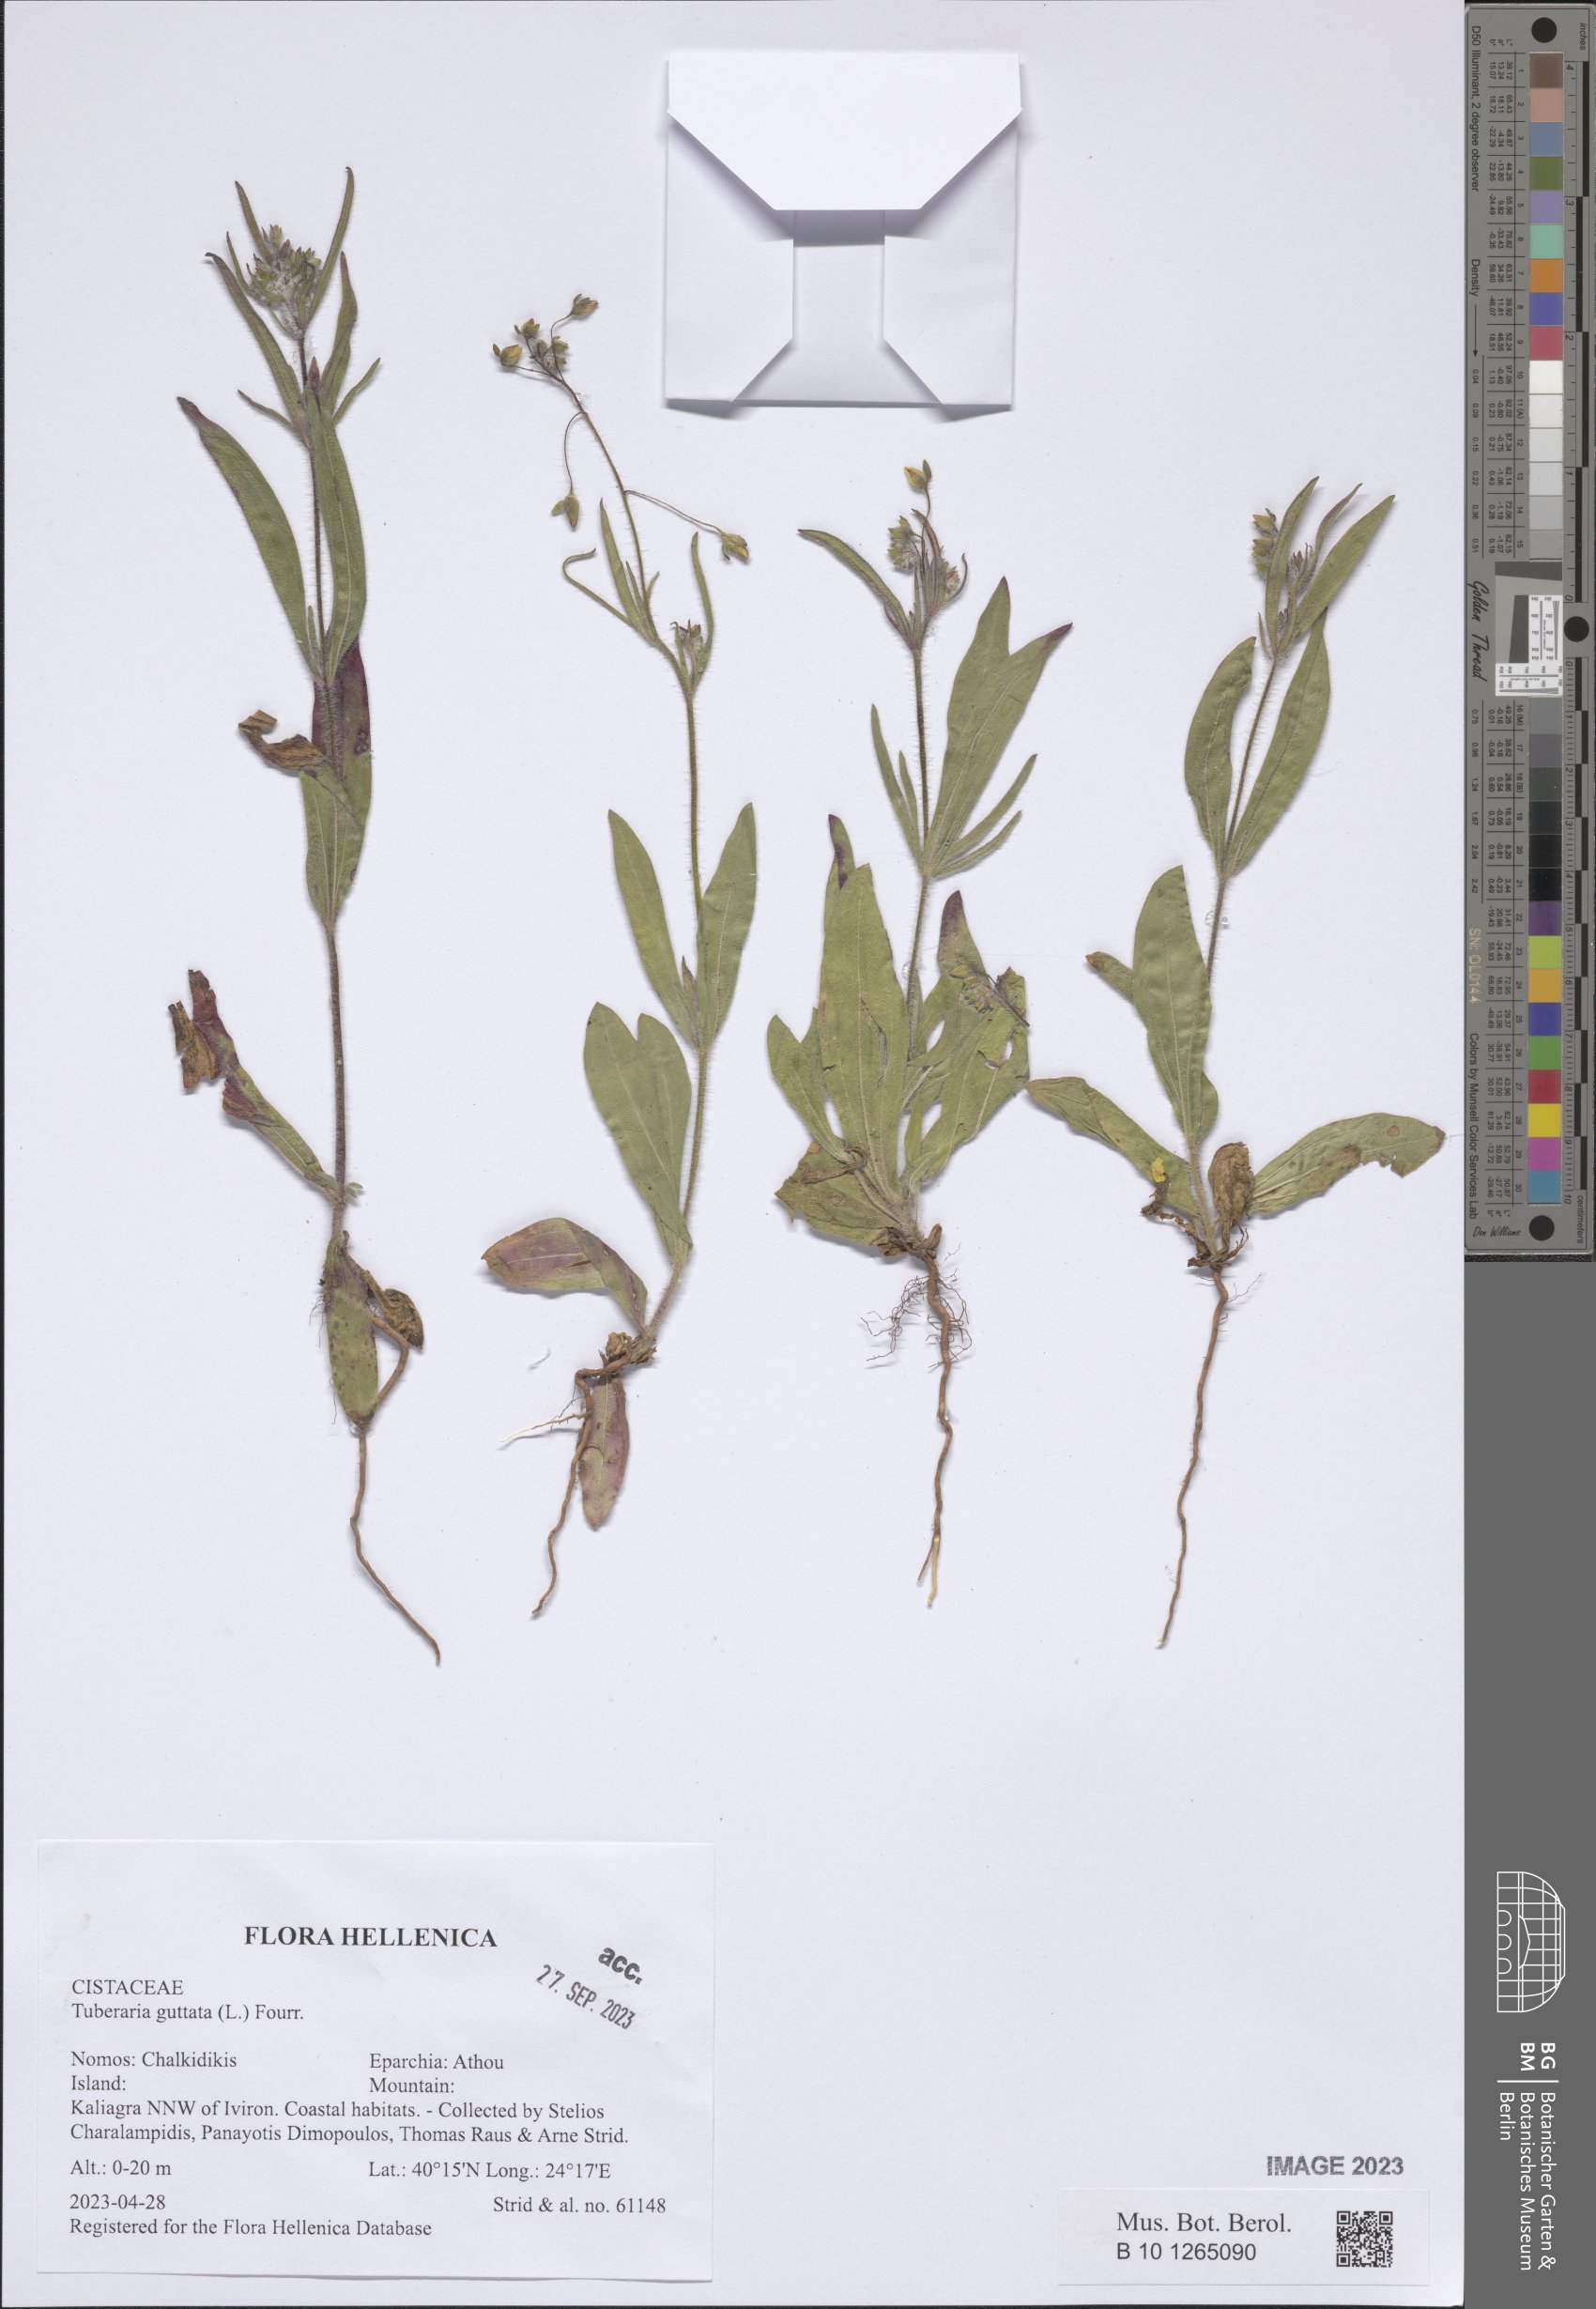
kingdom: Plantae
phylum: Tracheophyta
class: Magnoliopsida
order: Malvales
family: Cistaceae
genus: Tuberaria
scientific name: Tuberaria guttata
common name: Spotted rock-rose
